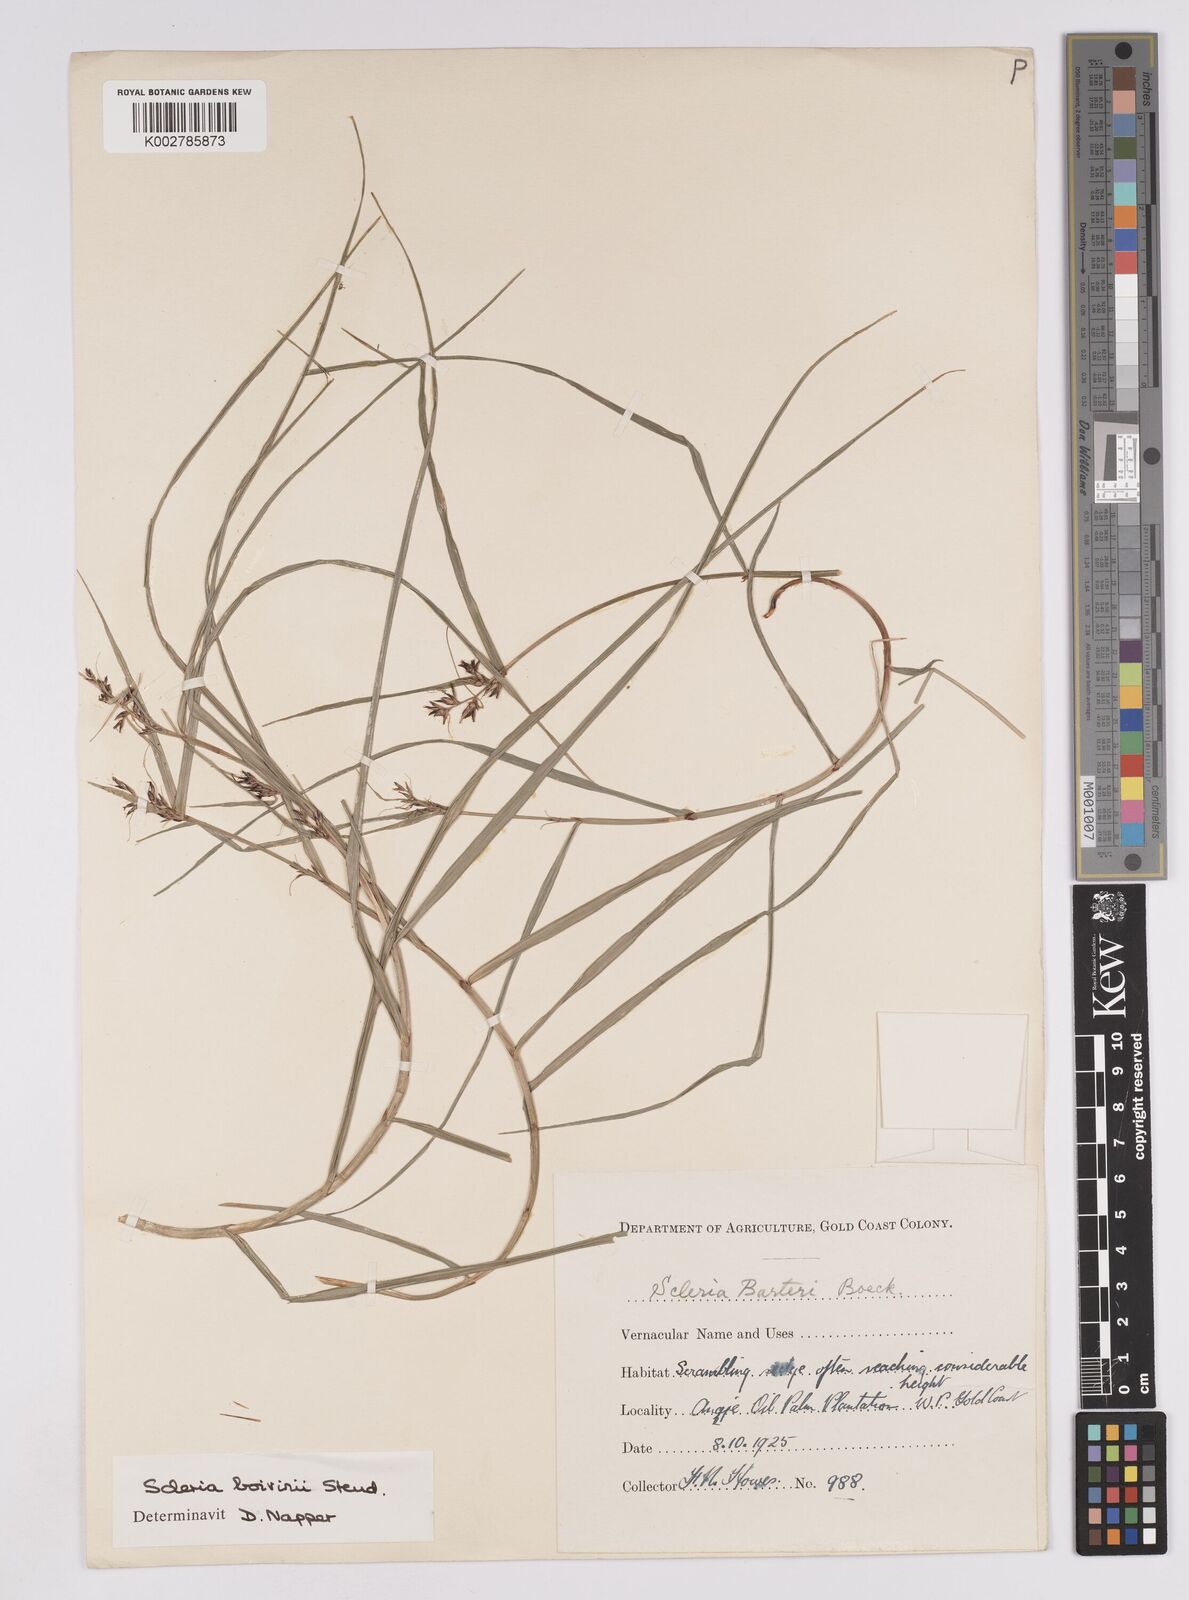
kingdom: Plantae
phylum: Tracheophyta
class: Liliopsida
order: Poales
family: Cyperaceae
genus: Scleria
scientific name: Scleria boivinii
